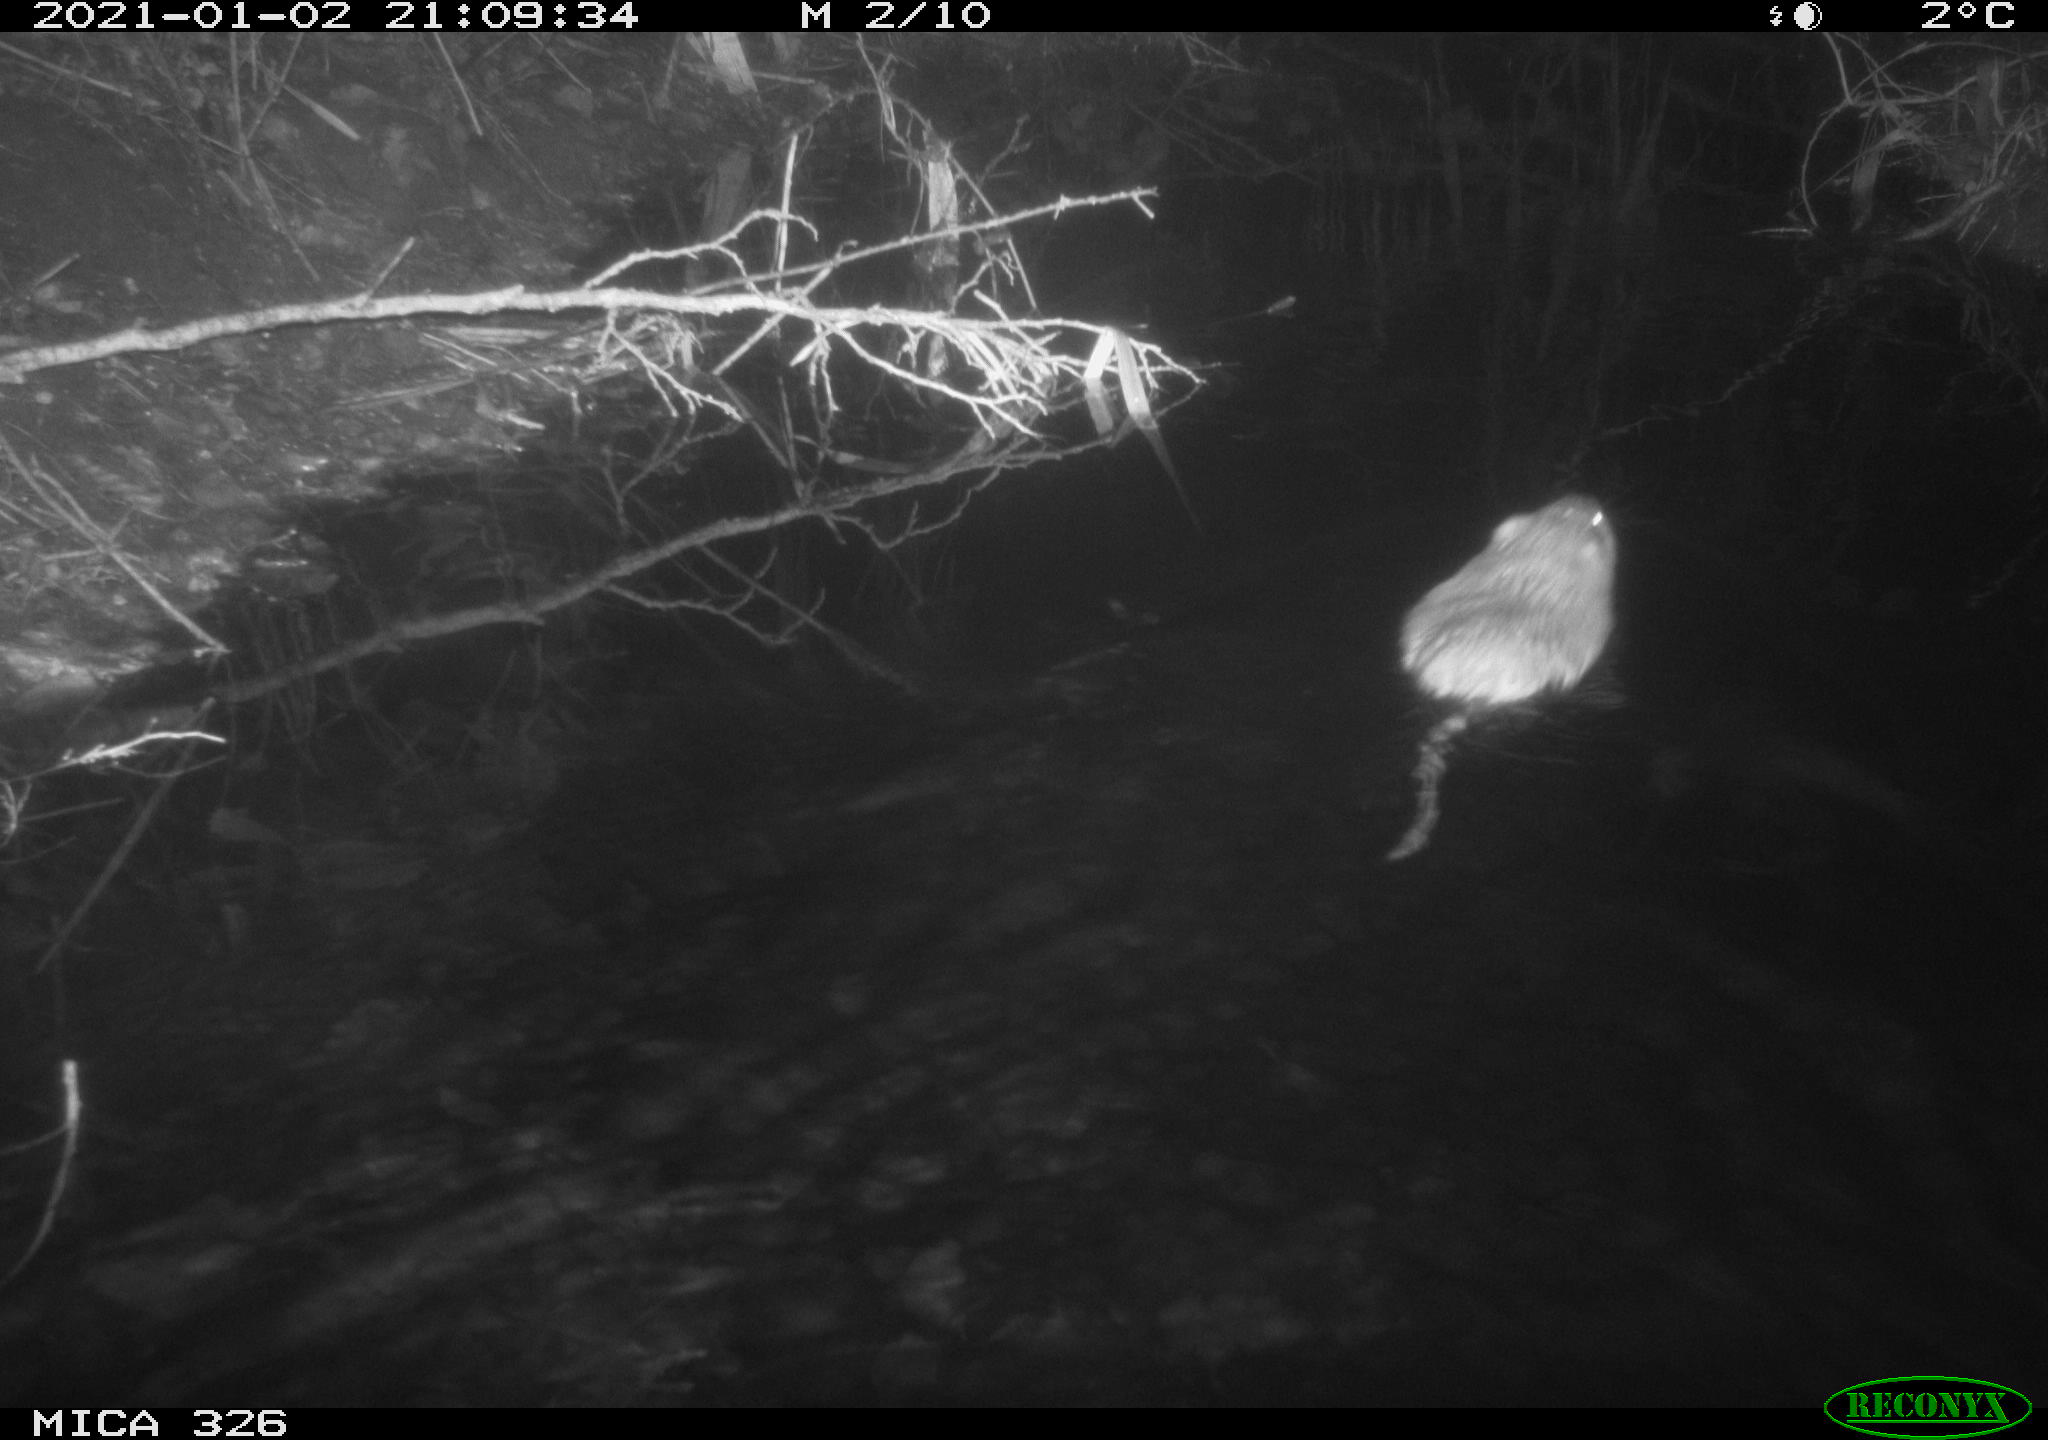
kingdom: Animalia
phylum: Chordata
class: Mammalia
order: Rodentia
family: Cricetidae
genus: Ondatra
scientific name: Ondatra zibethicus
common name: Muskrat
